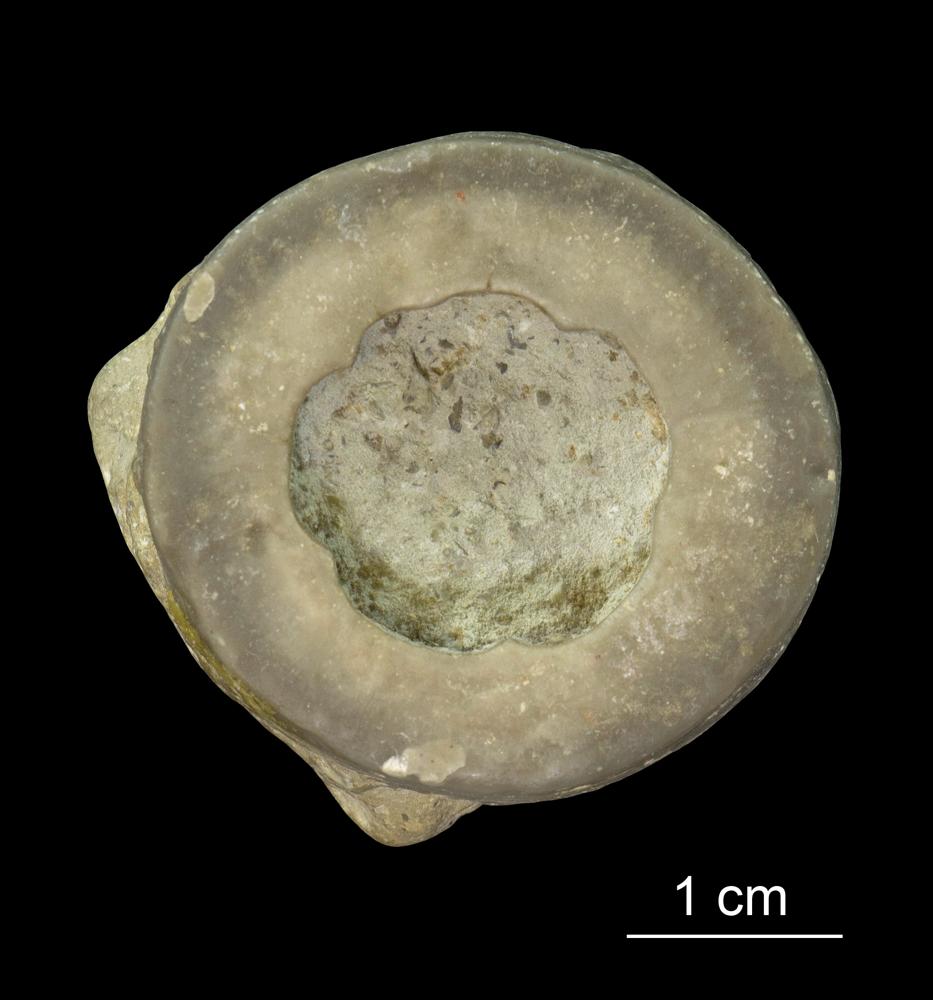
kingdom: Animalia
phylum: Echinodermata
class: Crinoidea
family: Crotalocrinitidae
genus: Crotalocrinus
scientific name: Crotalocrinus
